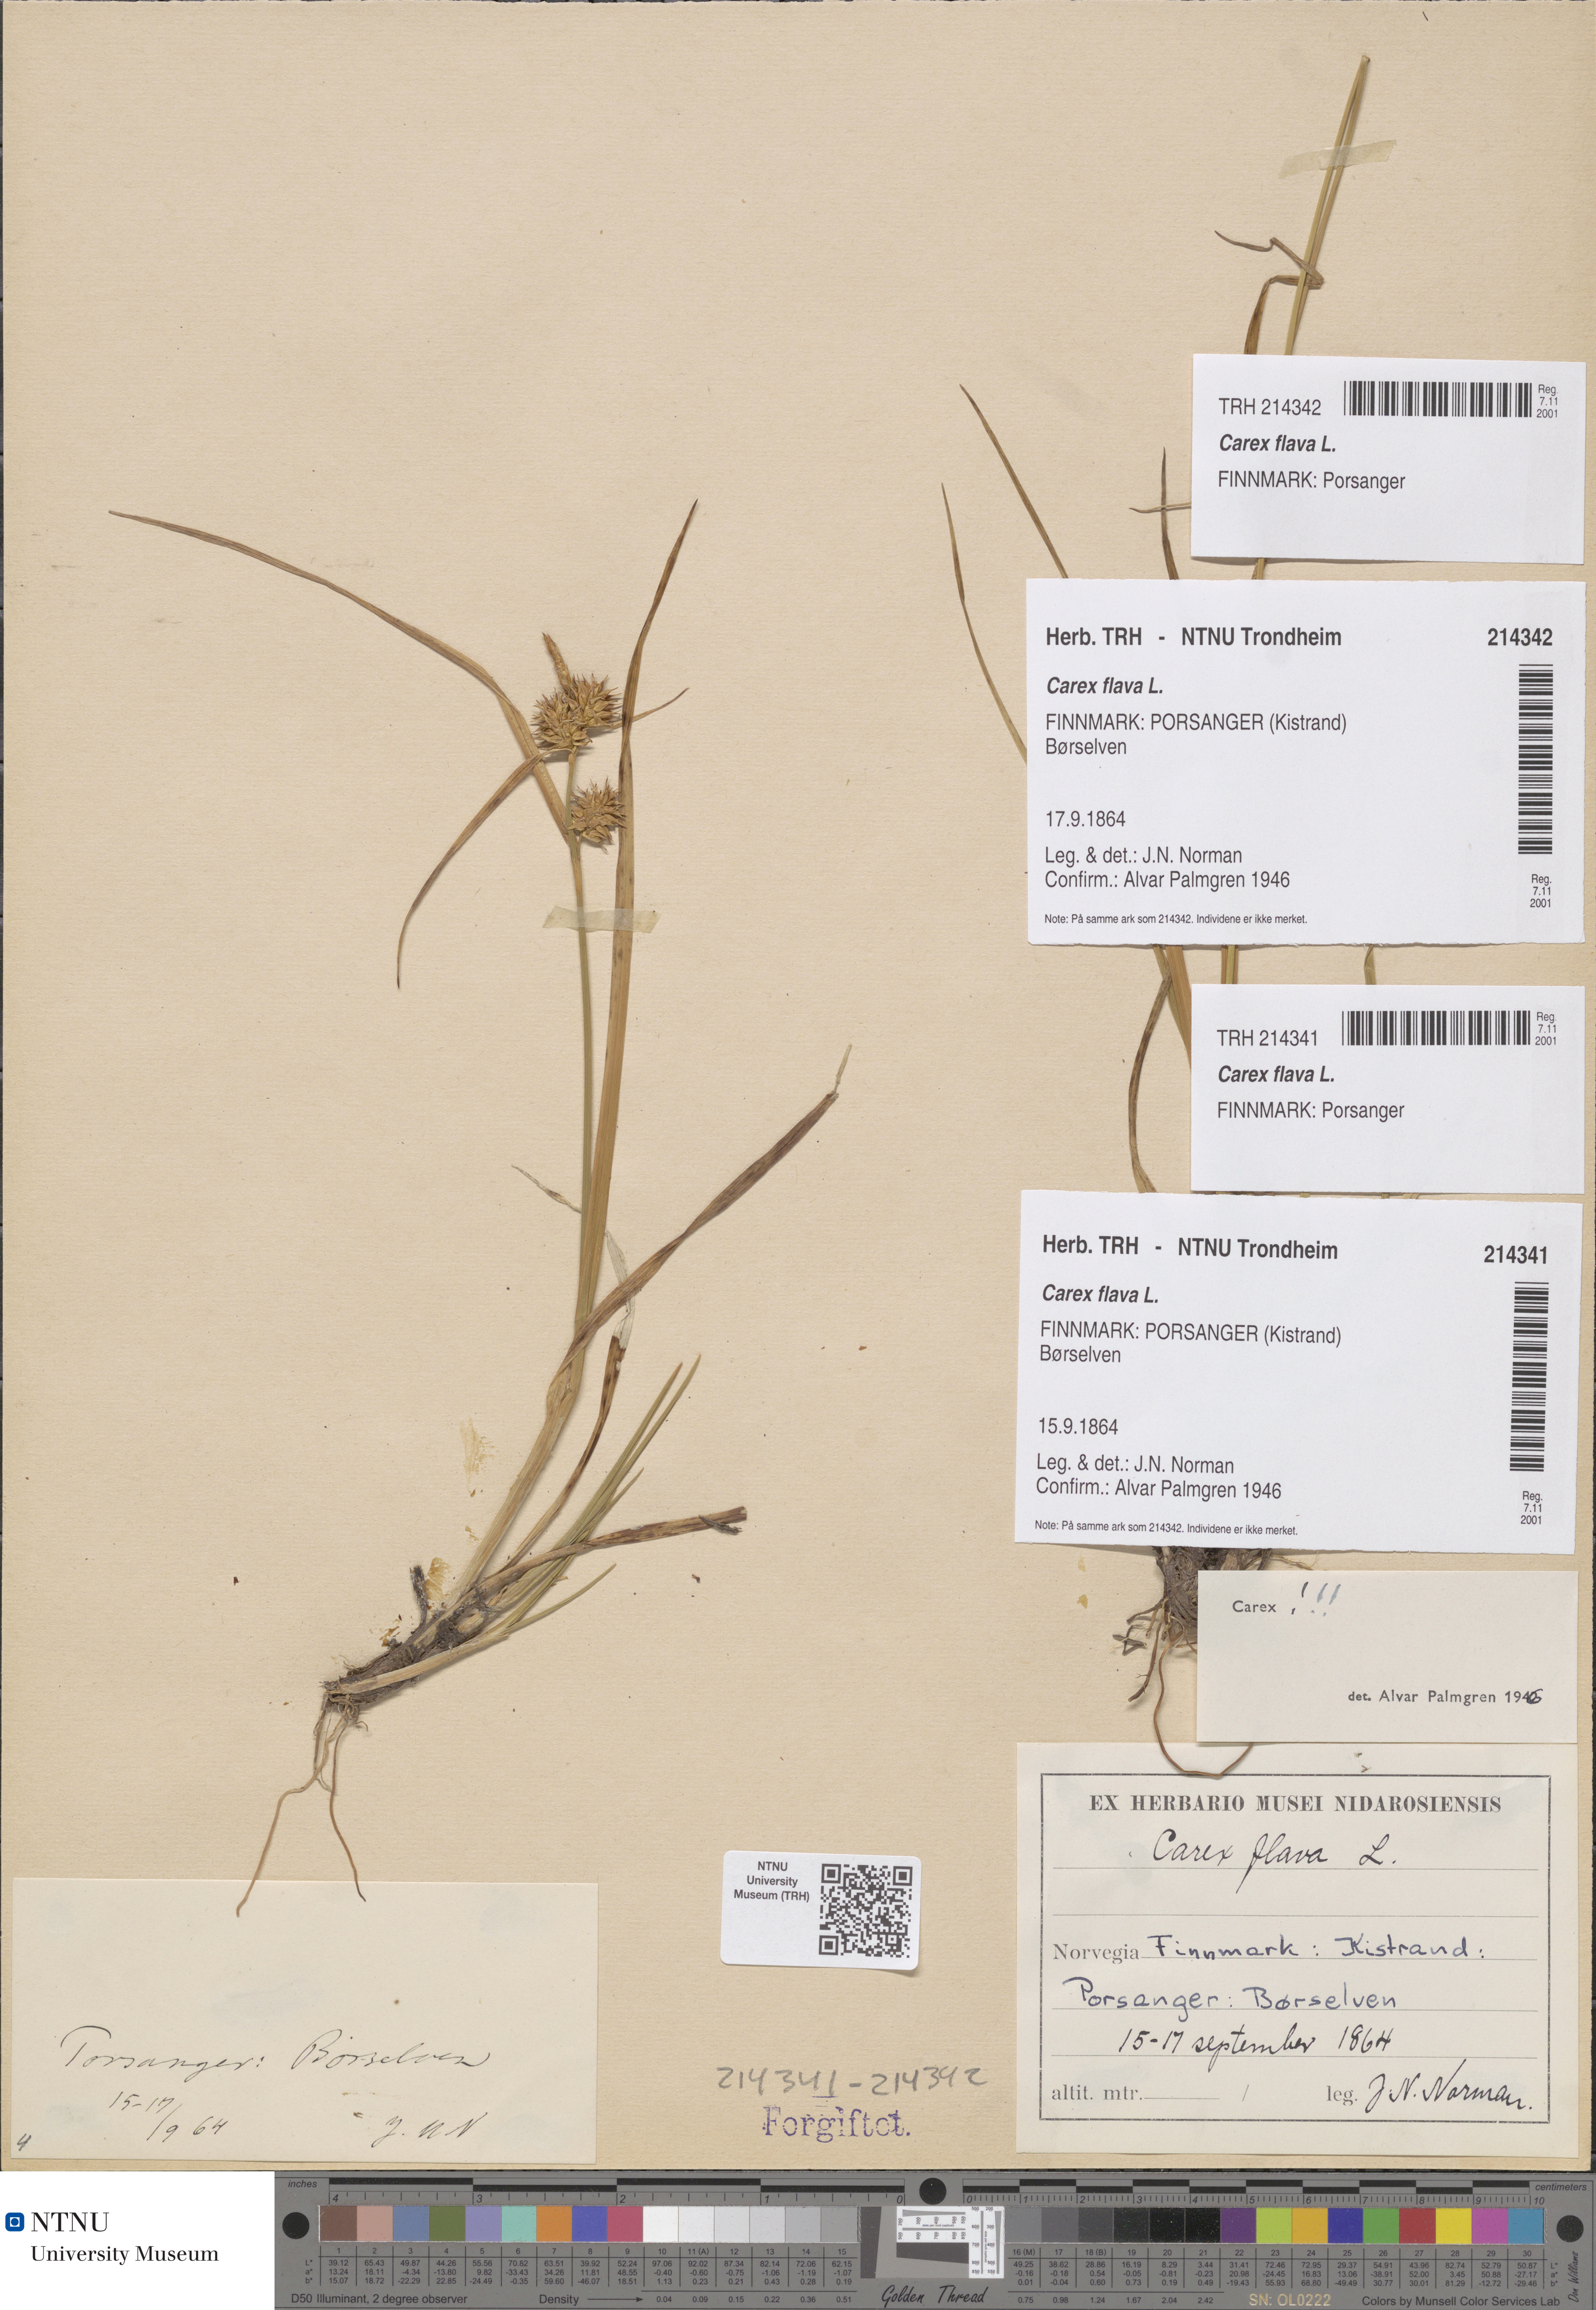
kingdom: Plantae
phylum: Tracheophyta
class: Liliopsida
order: Poales
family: Cyperaceae
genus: Carex
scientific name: Carex flava
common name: Large yellow-sedge
